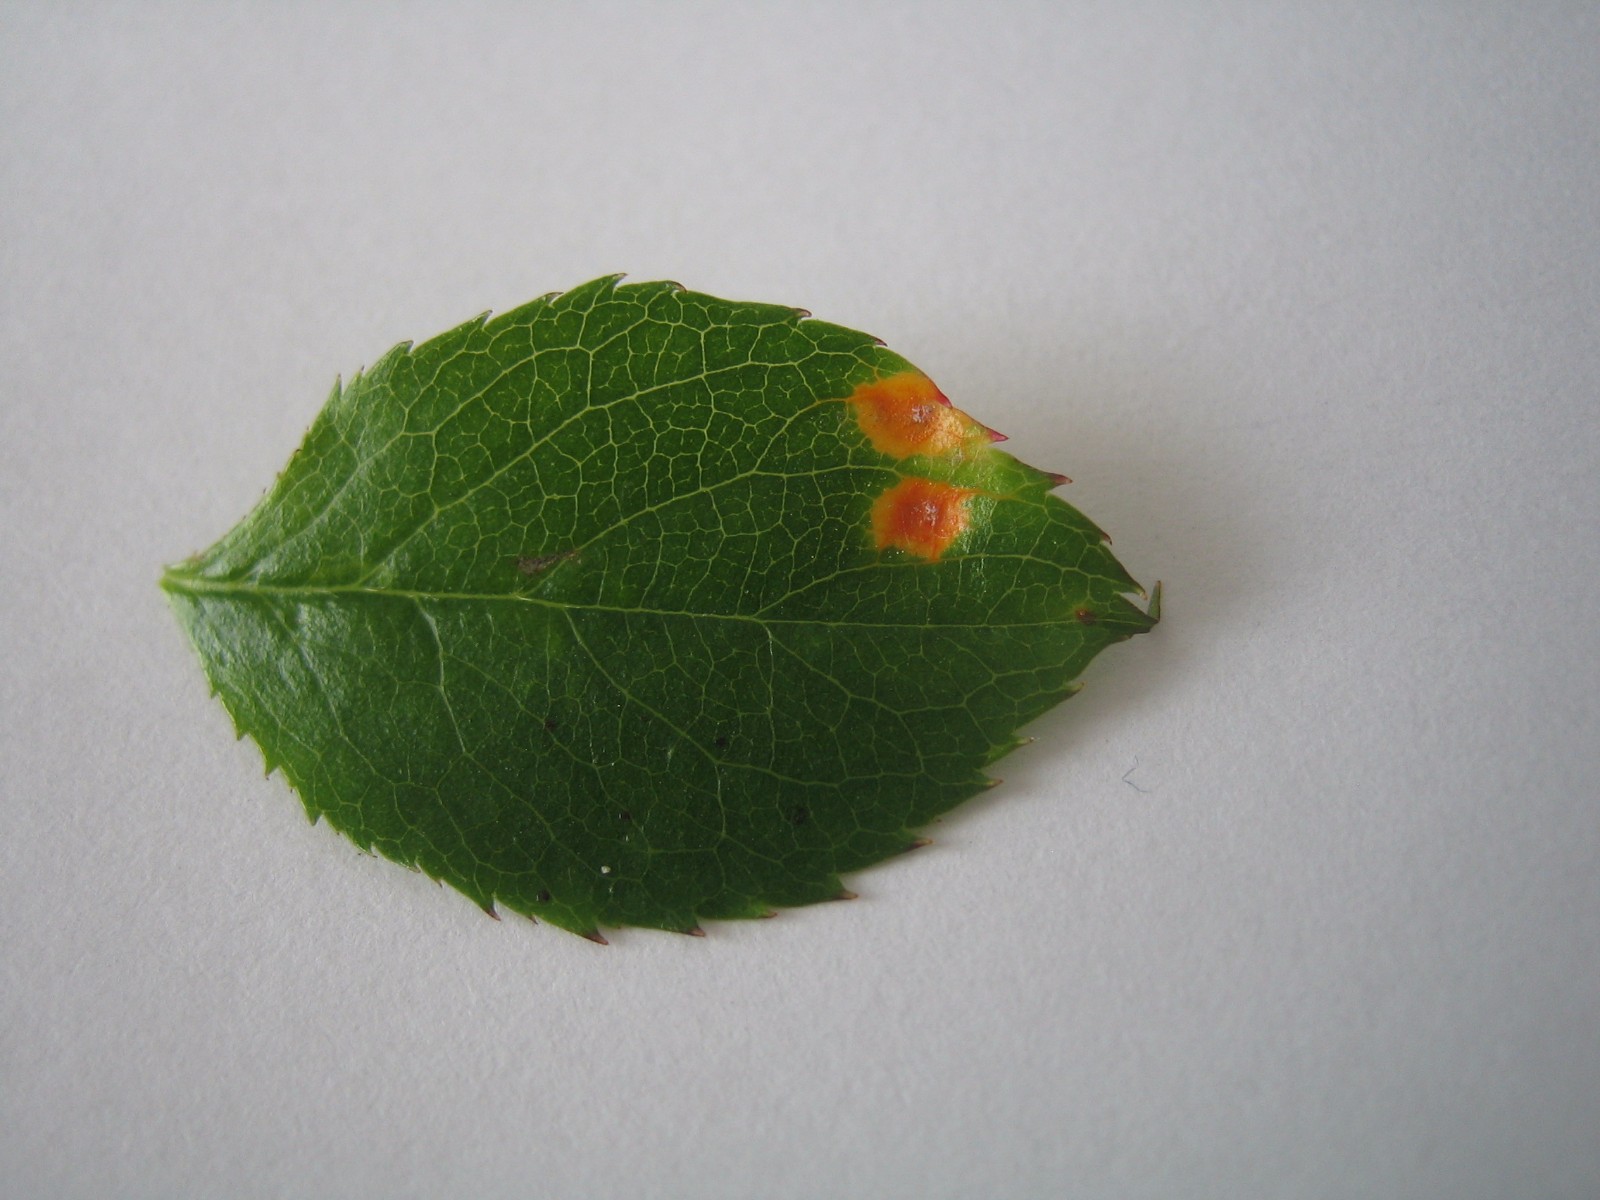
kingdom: Fungi
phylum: Basidiomycota
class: Pucciniomycetes
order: Pucciniales
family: Gymnosporangiaceae
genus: Gymnosporangium
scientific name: Gymnosporangium
